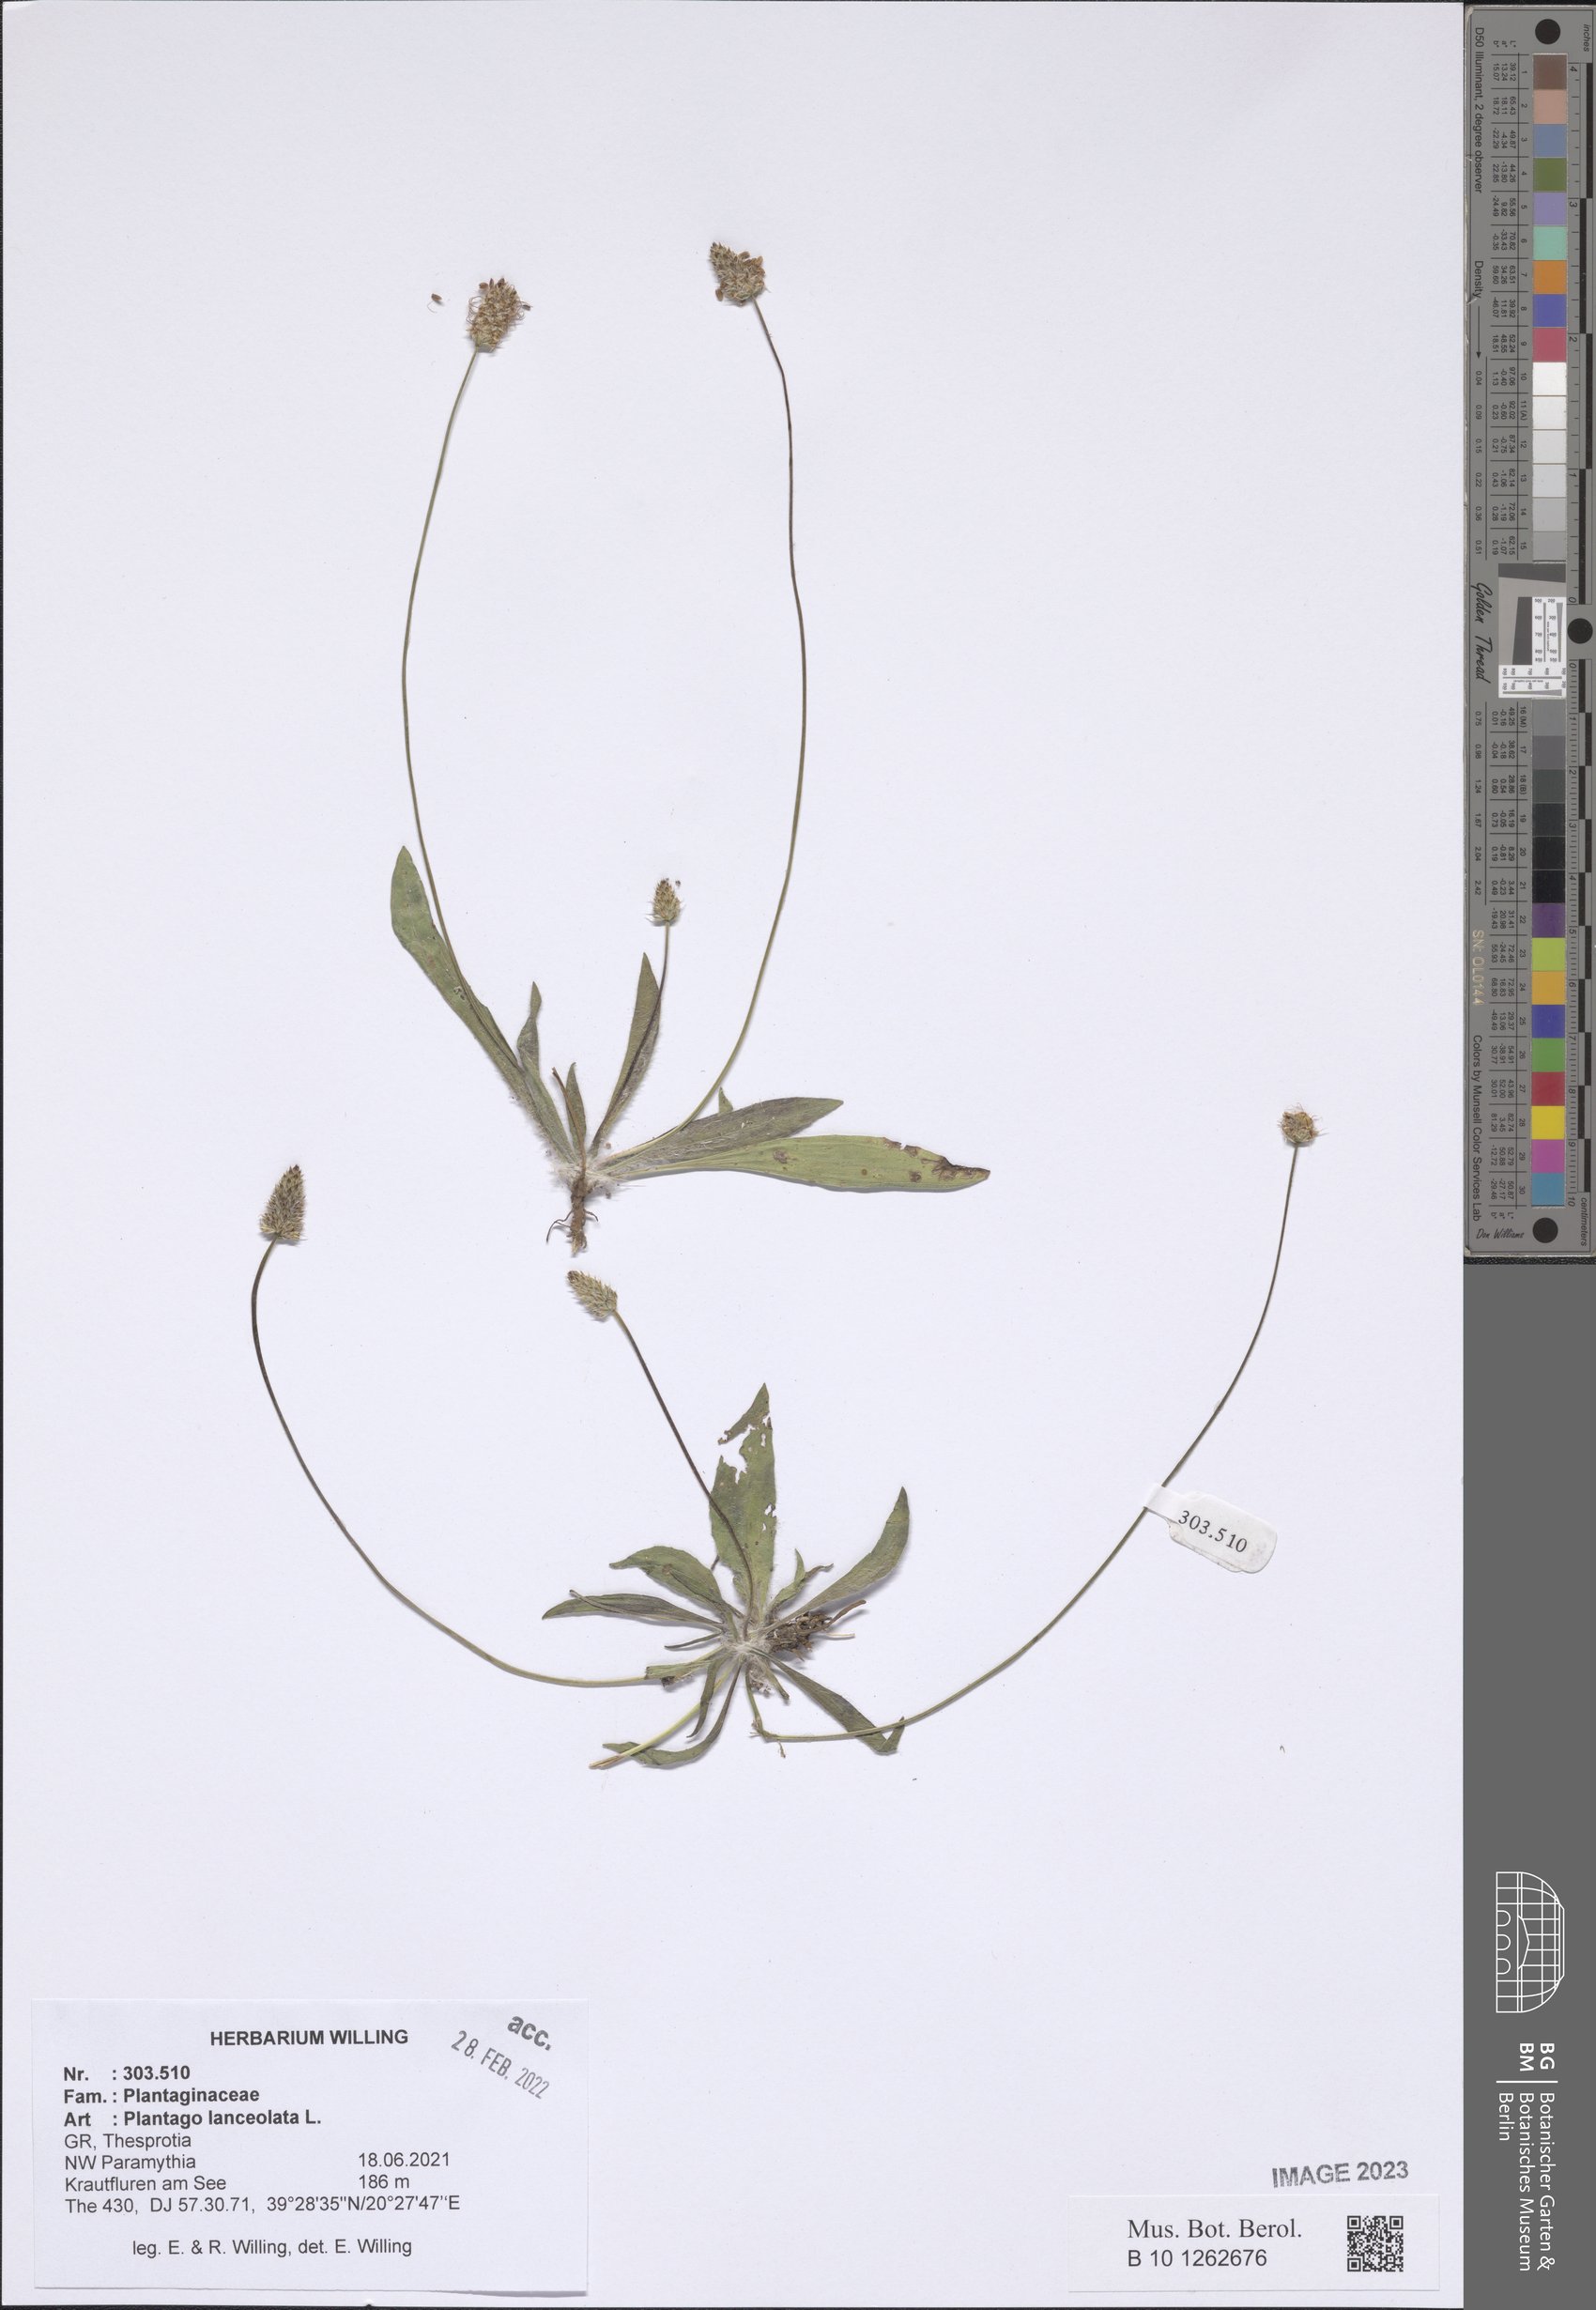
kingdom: Plantae
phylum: Tracheophyta
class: Magnoliopsida
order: Lamiales
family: Plantaginaceae
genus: Plantago
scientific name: Plantago lanceolata
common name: Ribwort plantain
